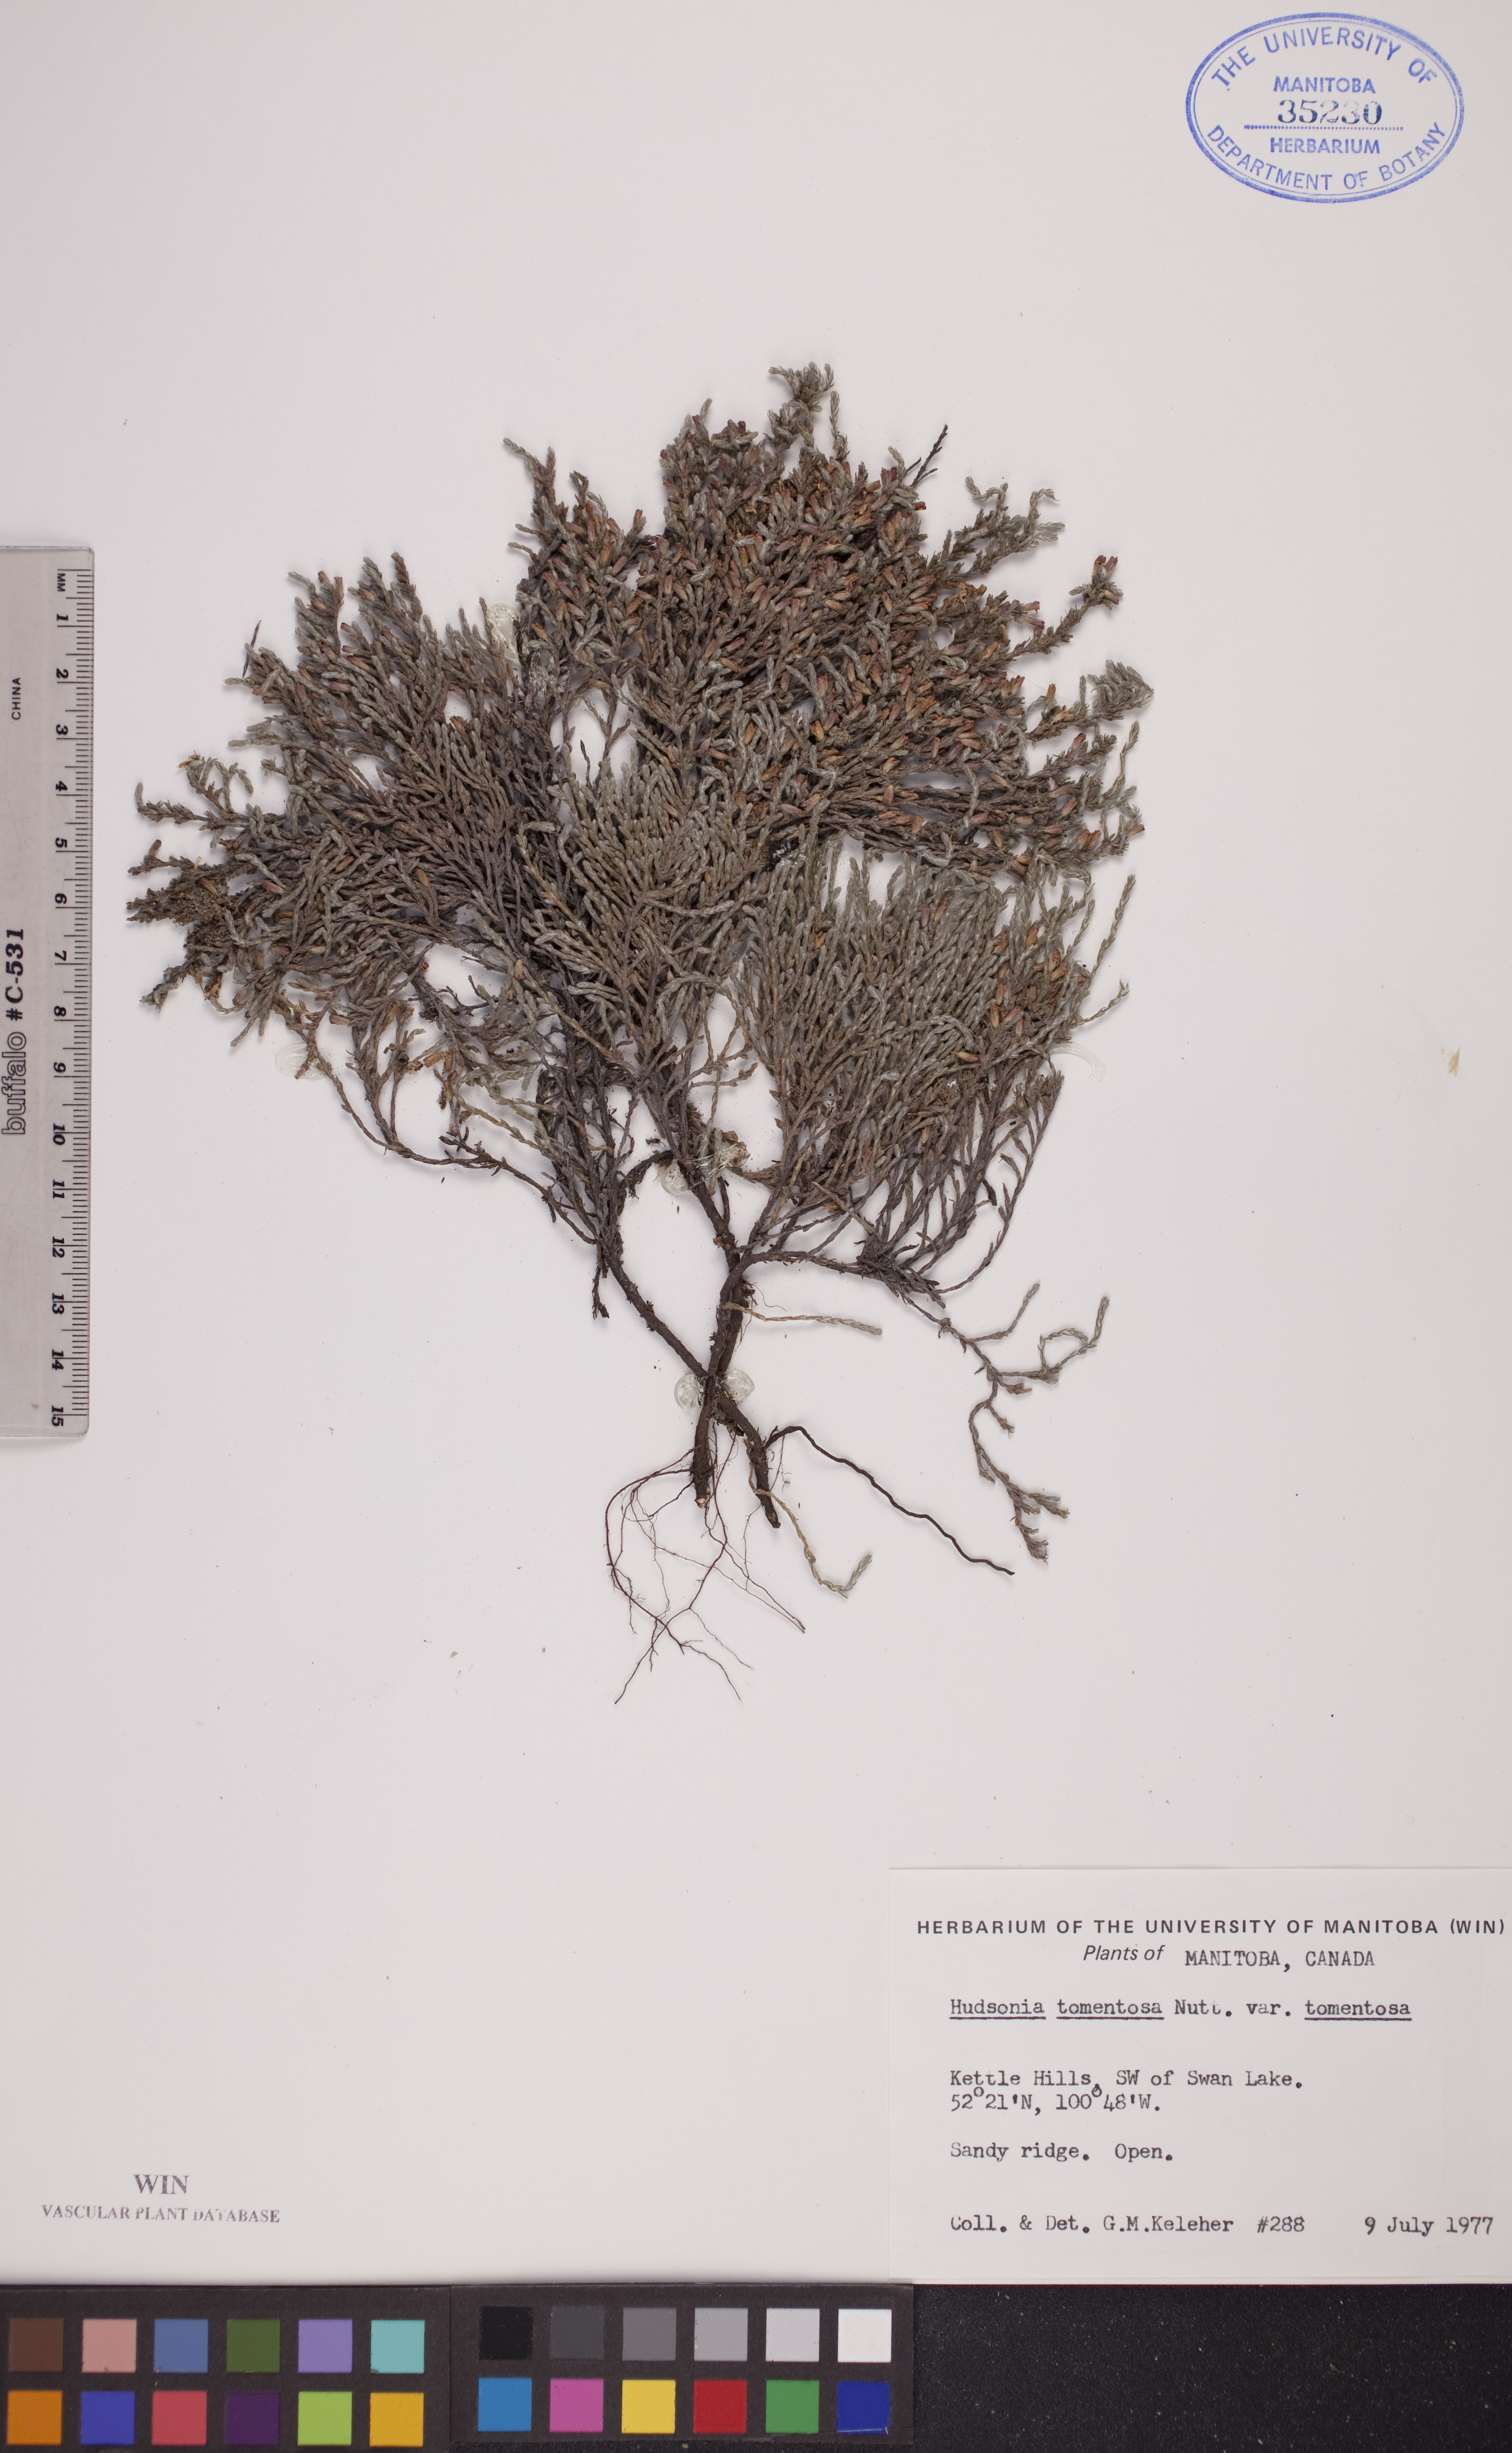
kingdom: Plantae
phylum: Tracheophyta
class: Magnoliopsida
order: Malvales
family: Cistaceae
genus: Hudsonia
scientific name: Hudsonia tomentosa
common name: Beach-heath
